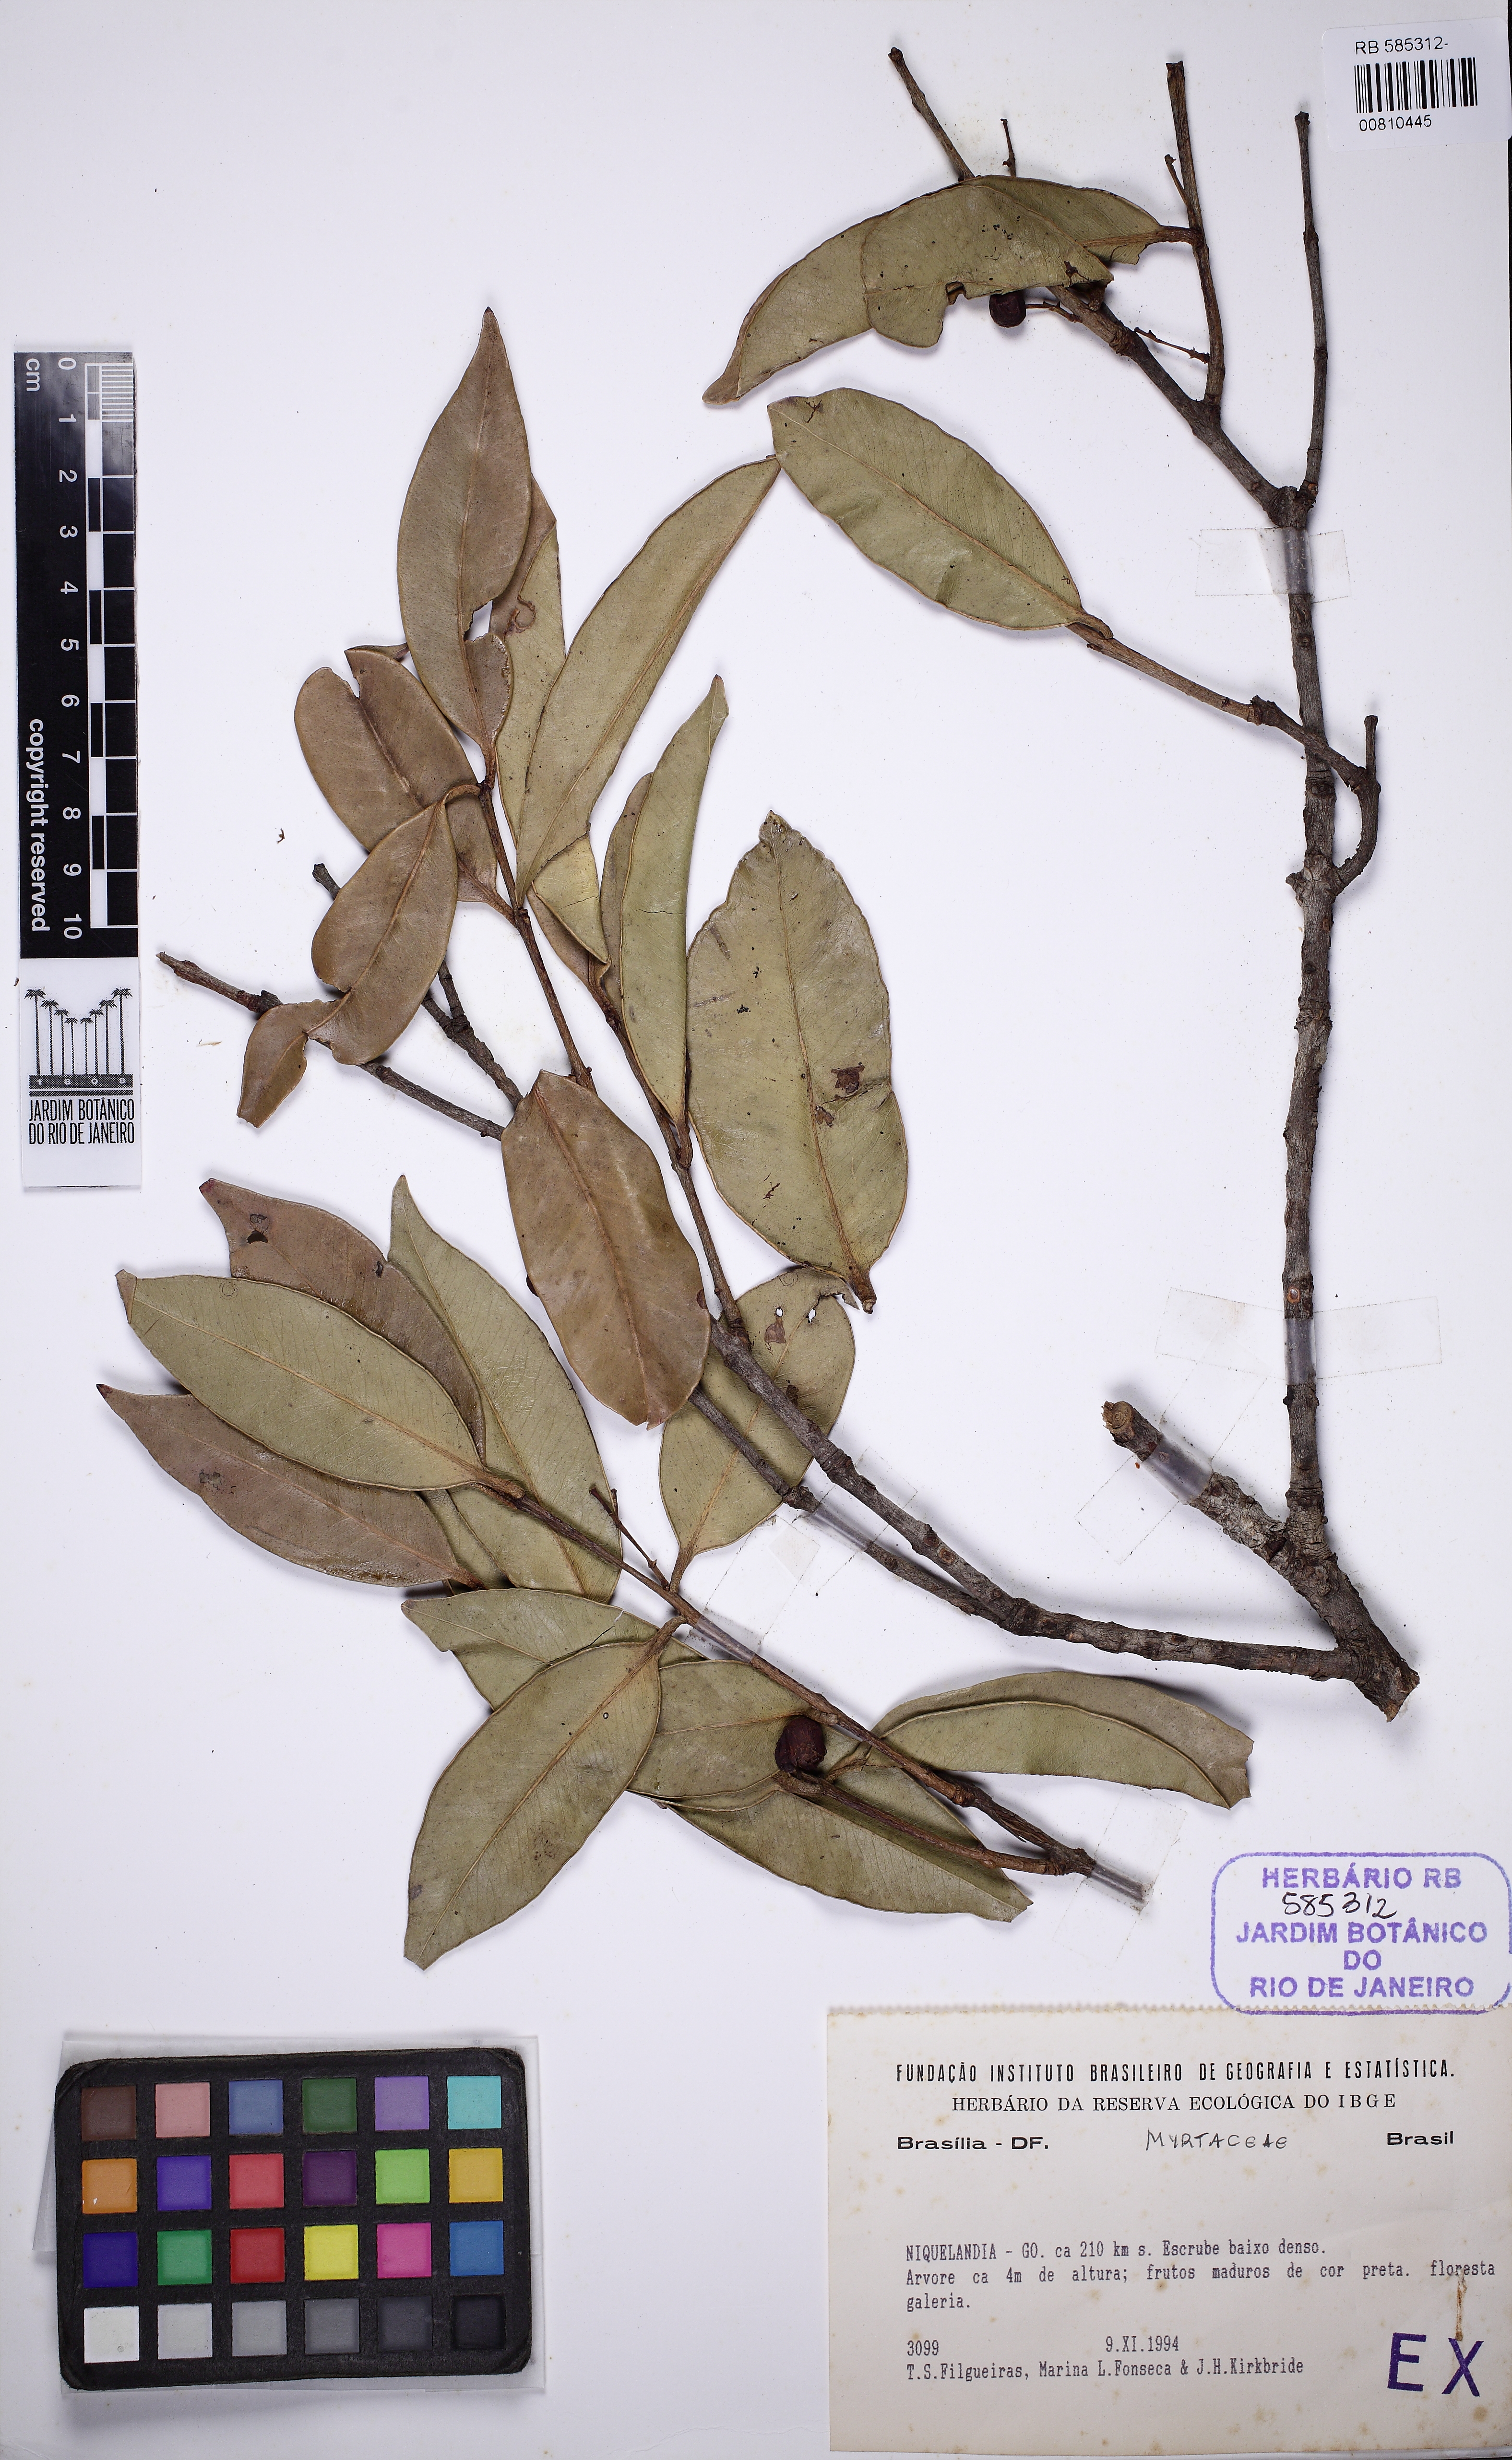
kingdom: Plantae
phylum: Tracheophyta
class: Magnoliopsida
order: Myrtales
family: Myrtaceae
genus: Siphoneugena
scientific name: Siphoneugena densiflora
